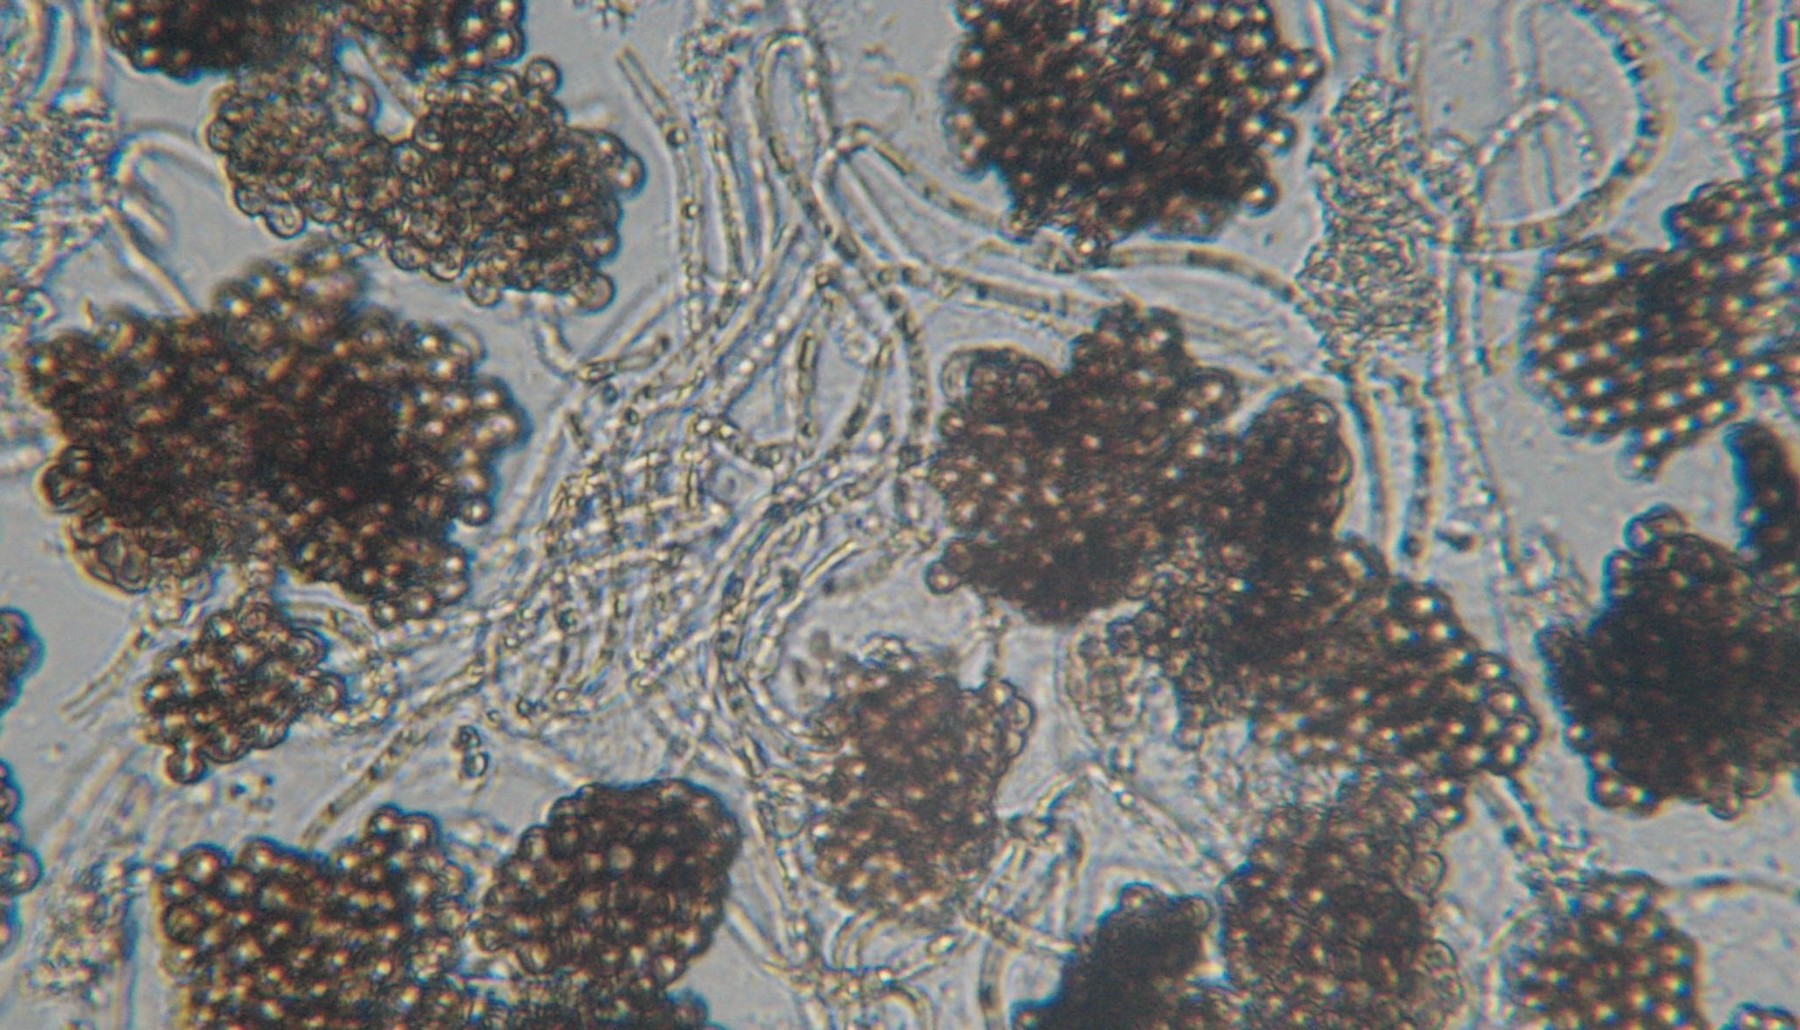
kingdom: Fungi
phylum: Ascomycota
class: Leotiomycetes
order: Helotiales
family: Mollisiaceae
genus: Cheirospora
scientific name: Cheirospora botryospora
